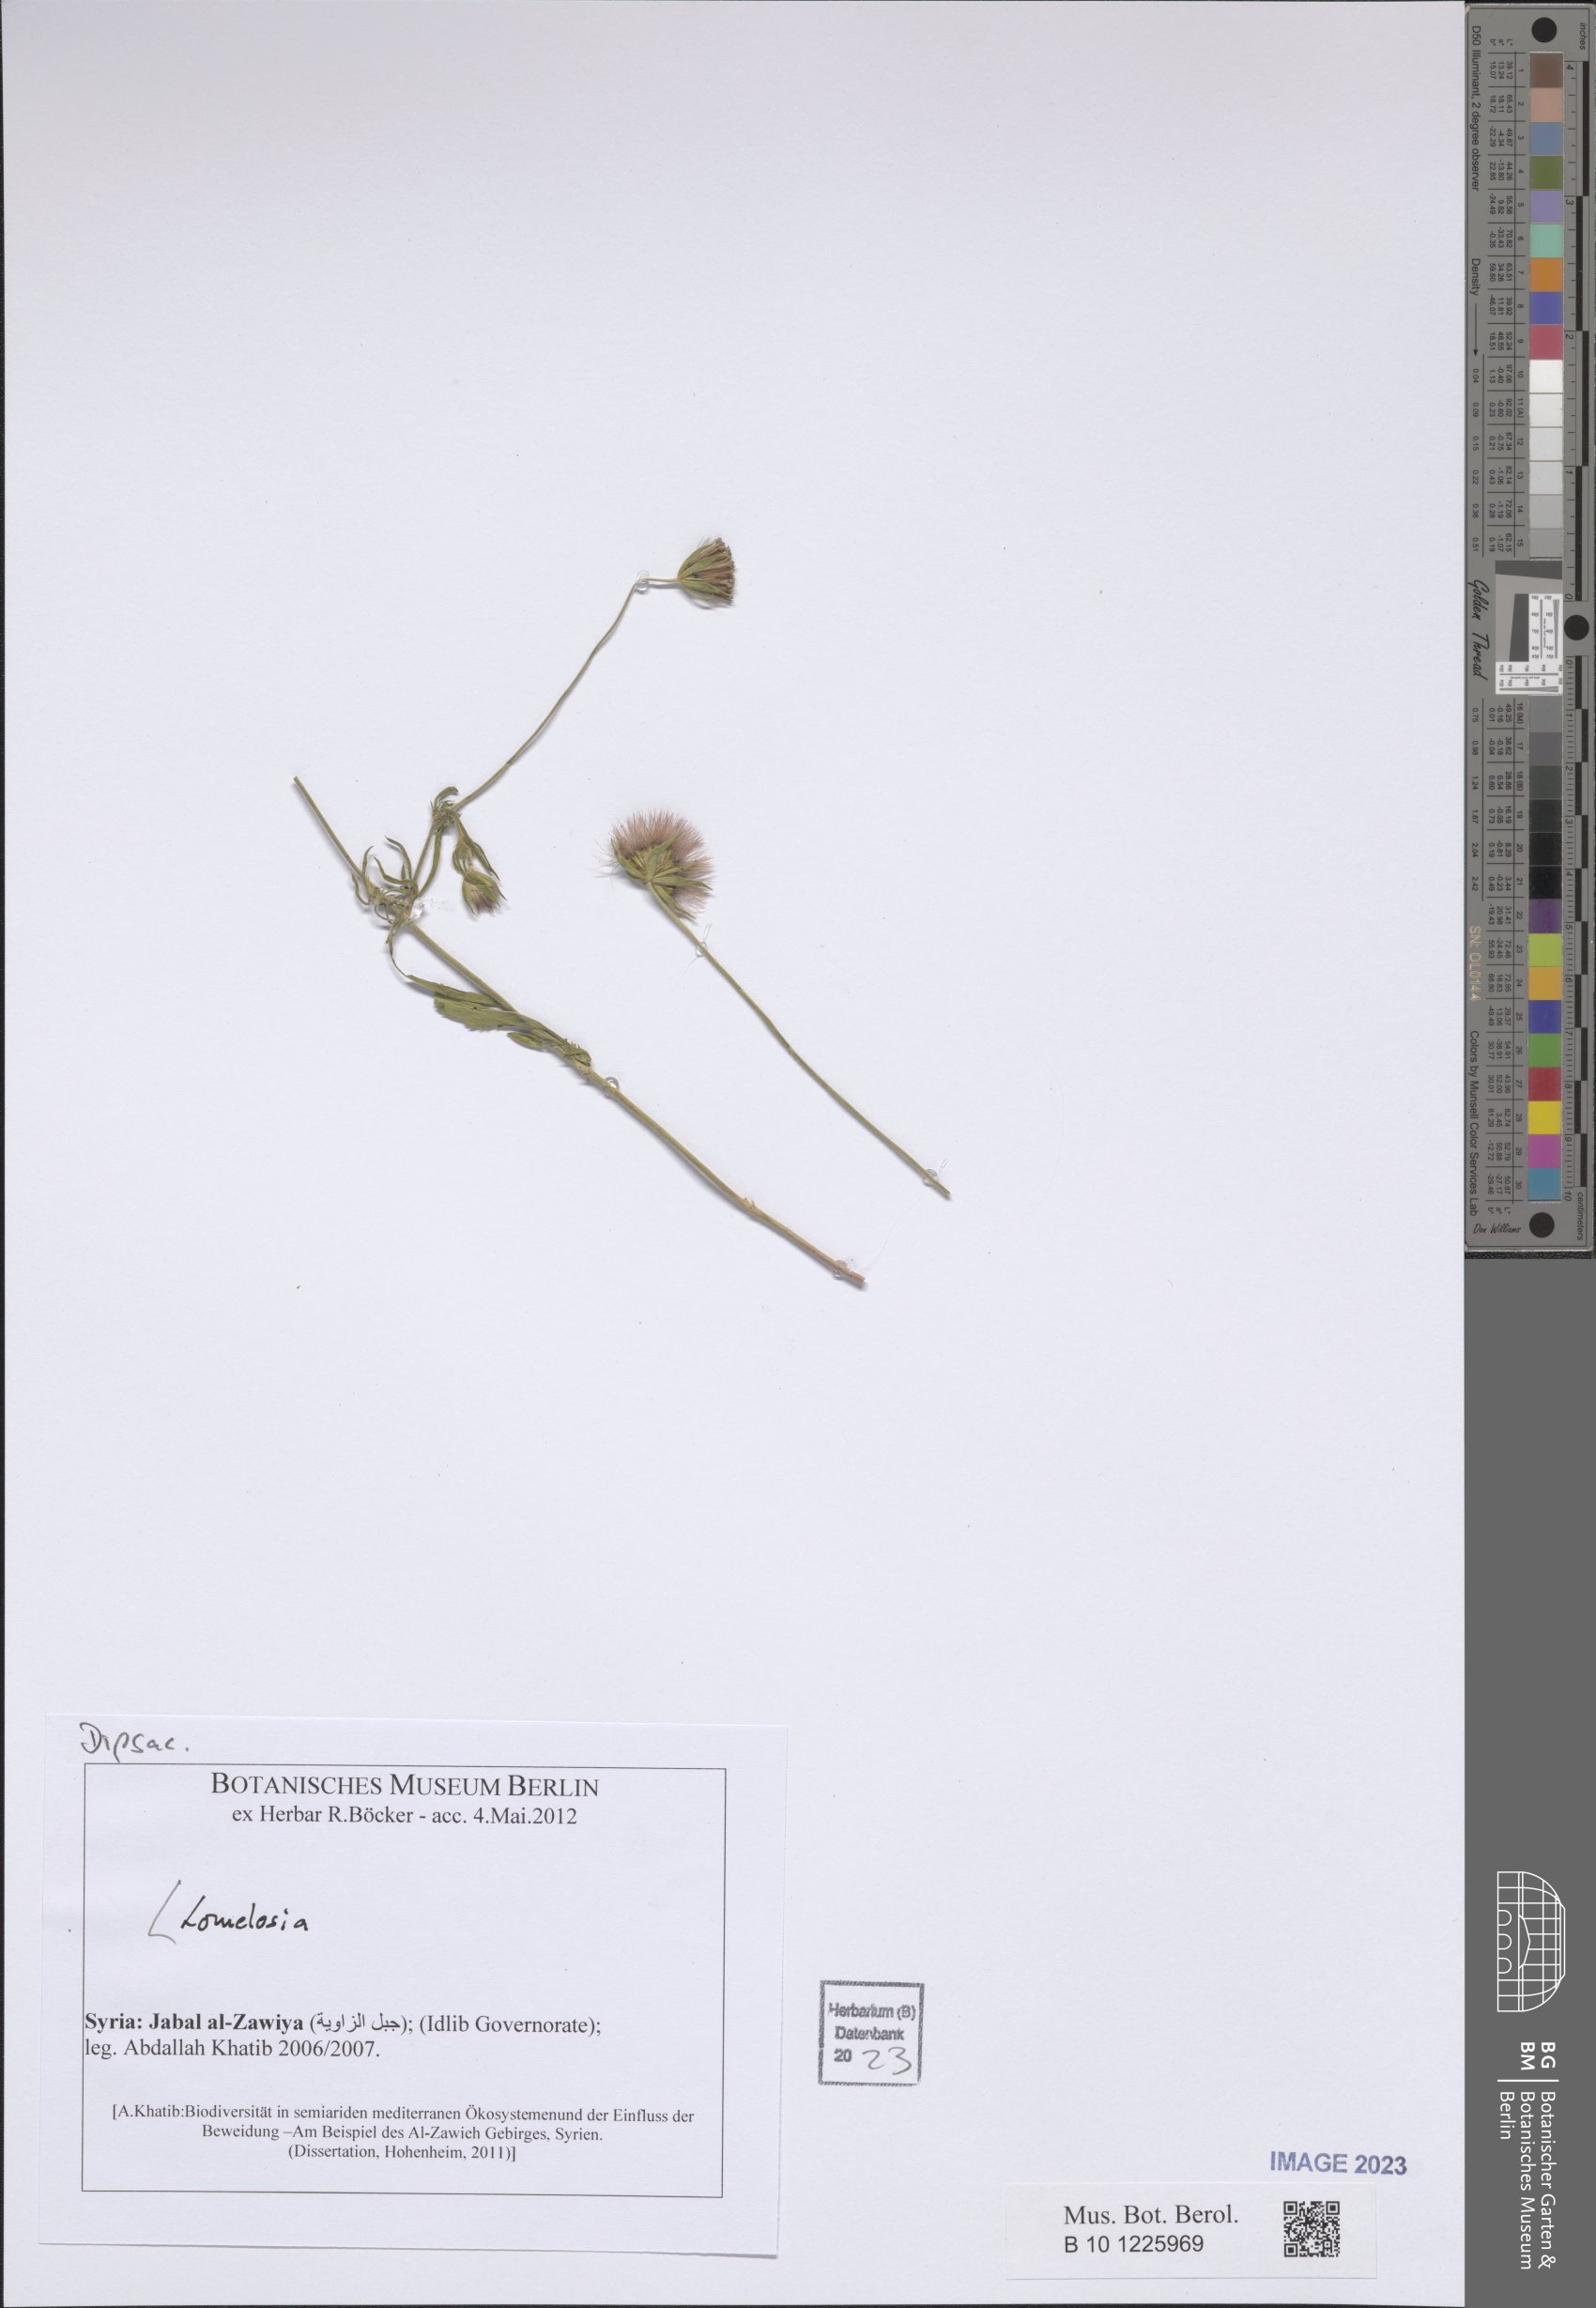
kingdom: Plantae
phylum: Tracheophyta
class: Magnoliopsida
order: Dipsacales
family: Caprifoliaceae
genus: Lomelosia
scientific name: Lomelosia
